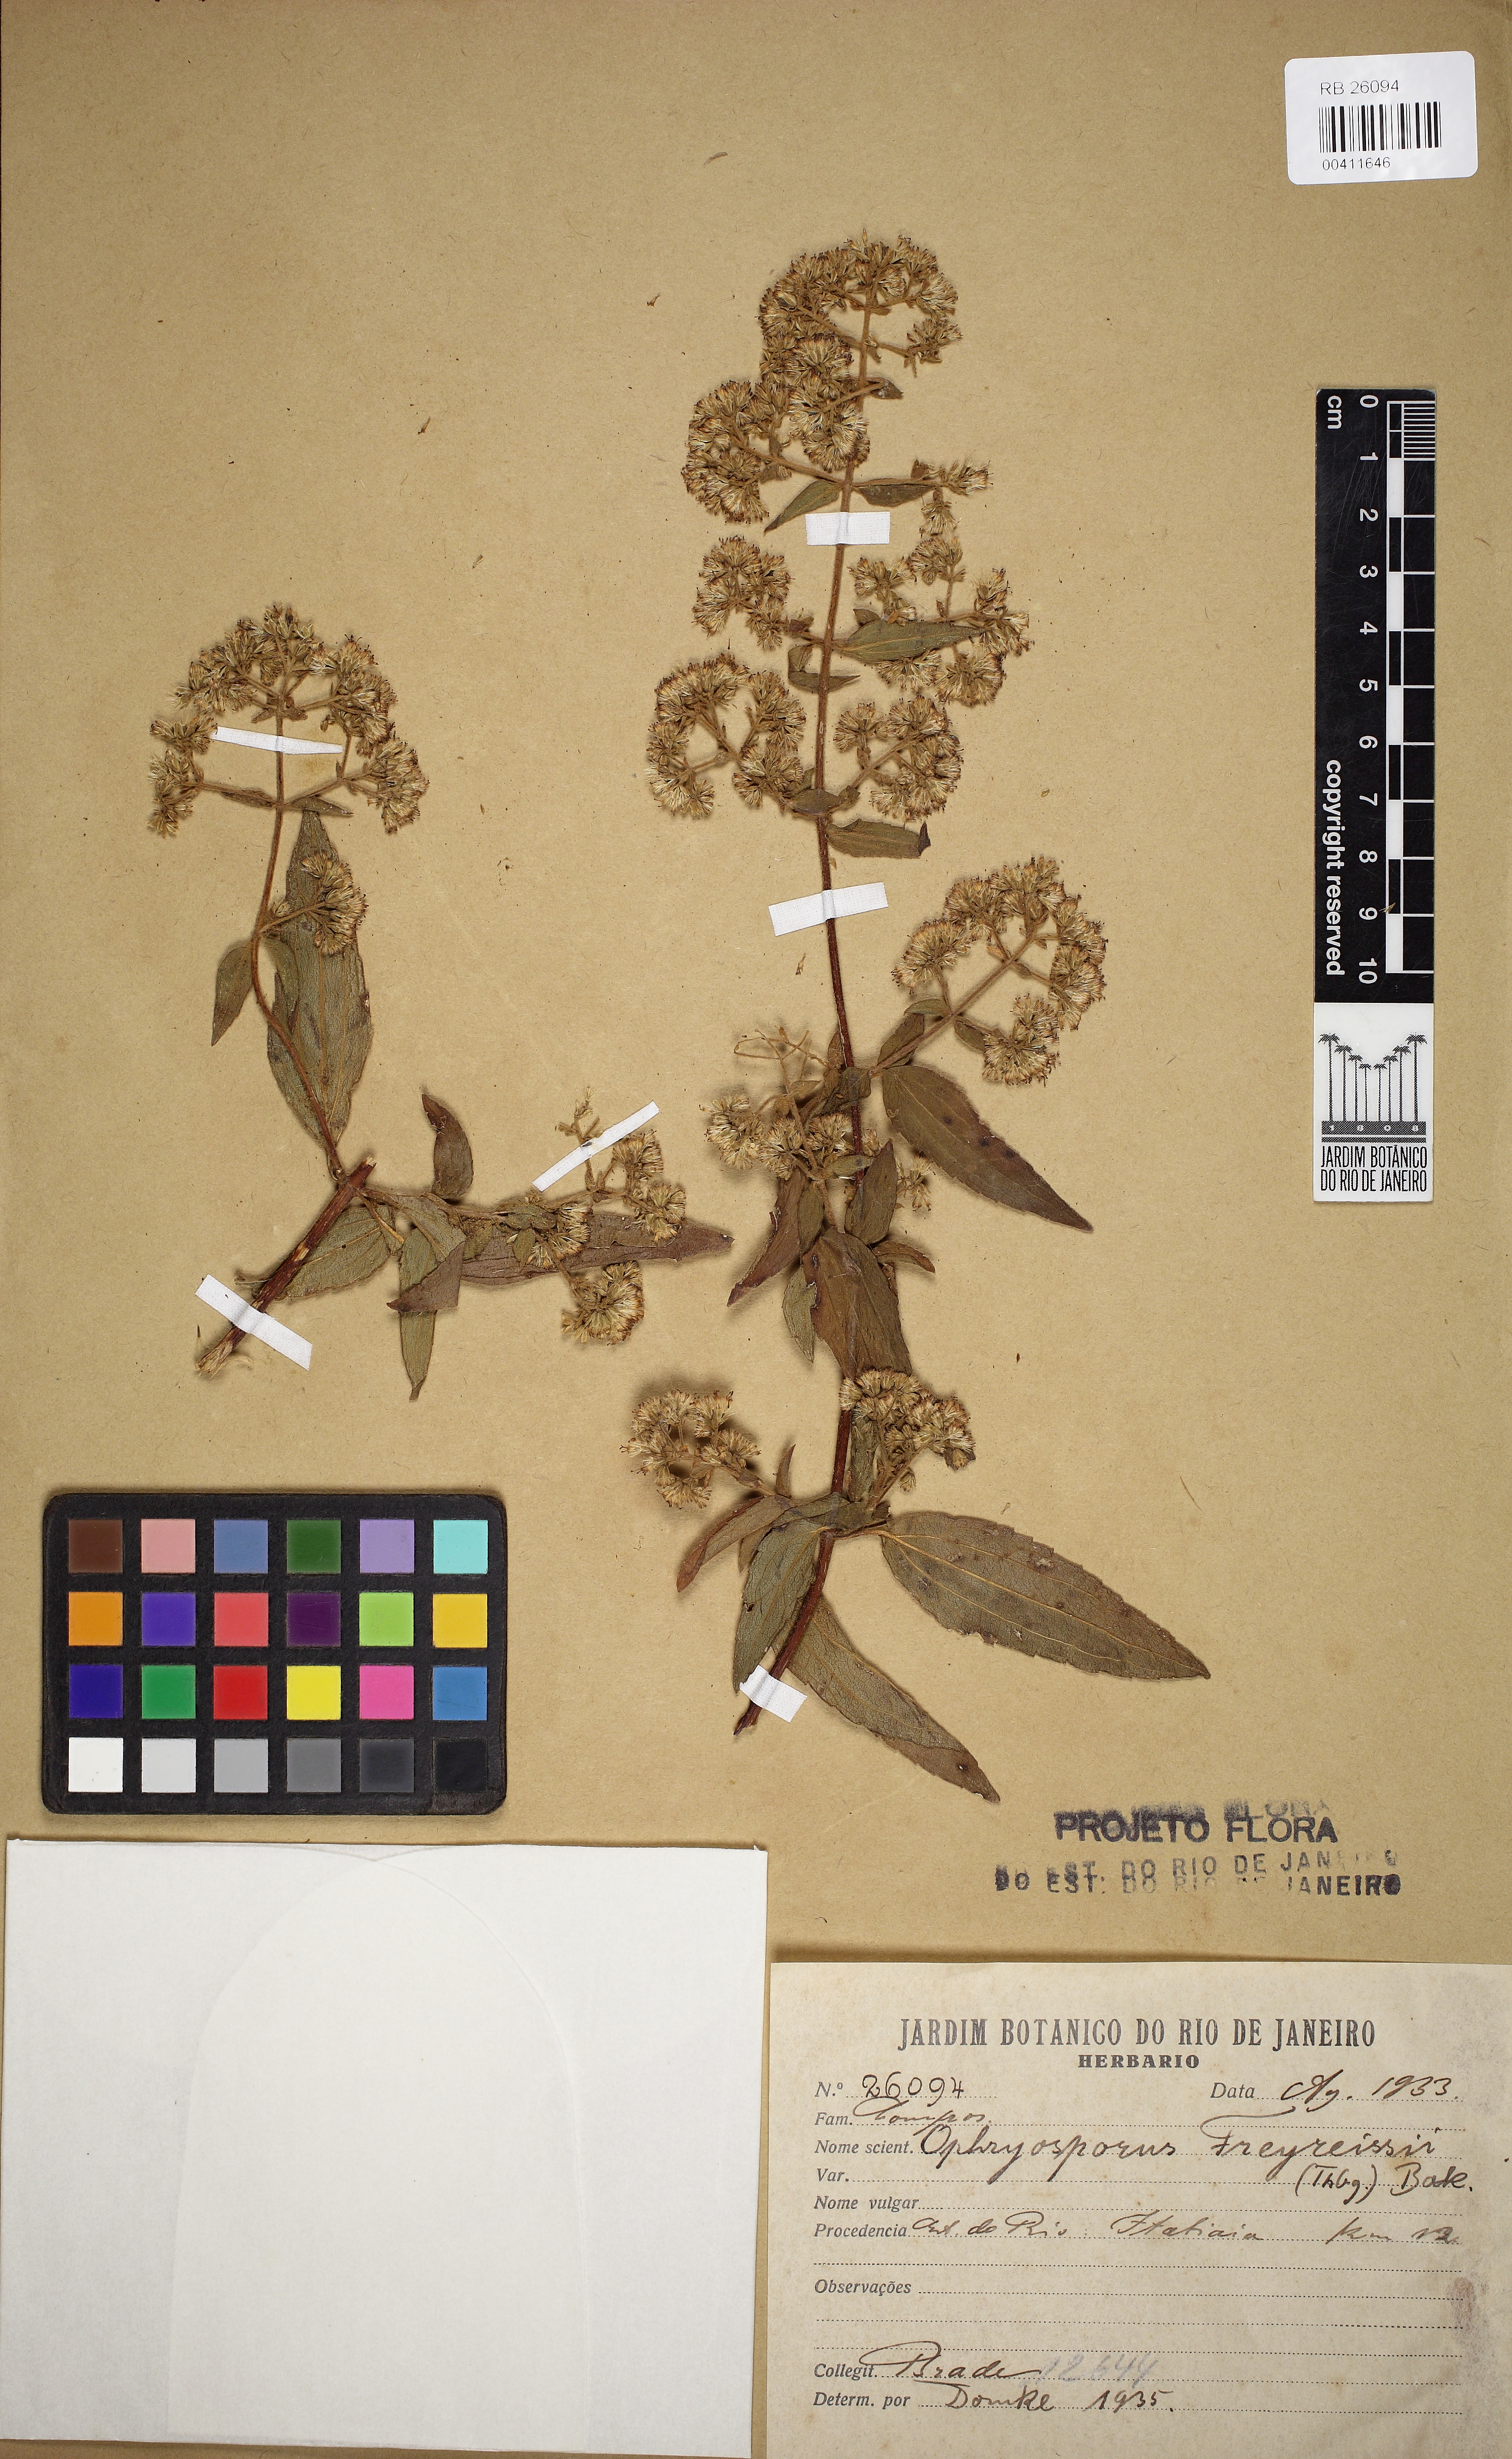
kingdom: Plantae
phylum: Tracheophyta
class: Magnoliopsida
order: Asterales
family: Asteraceae
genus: Ophryosporus
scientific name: Ophryosporus freyreysi
